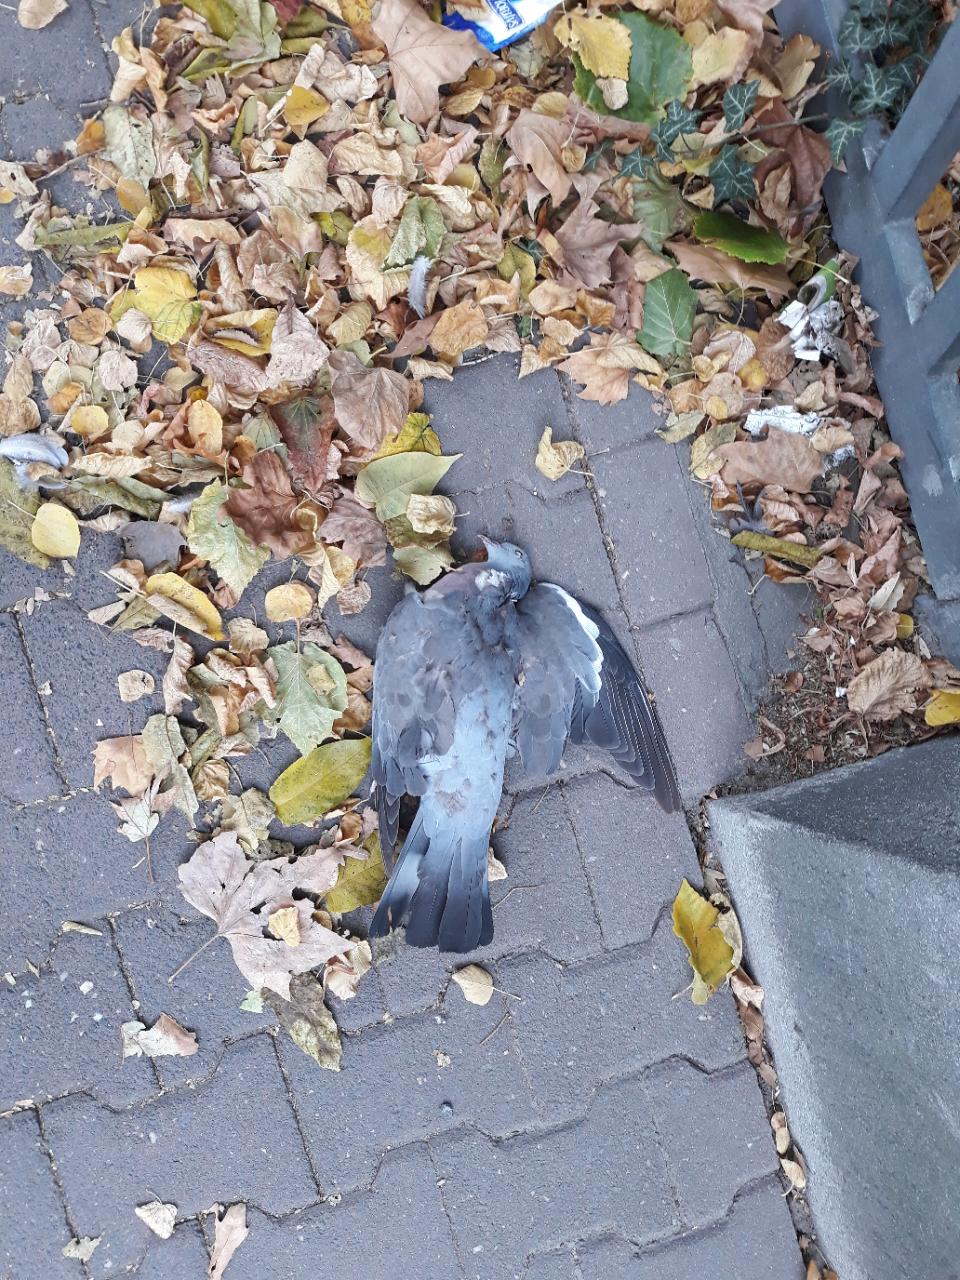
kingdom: Animalia
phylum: Chordata
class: Aves
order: Columbiformes
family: Columbidae
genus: Columba
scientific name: Columba palumbus
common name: Common wood pigeon
